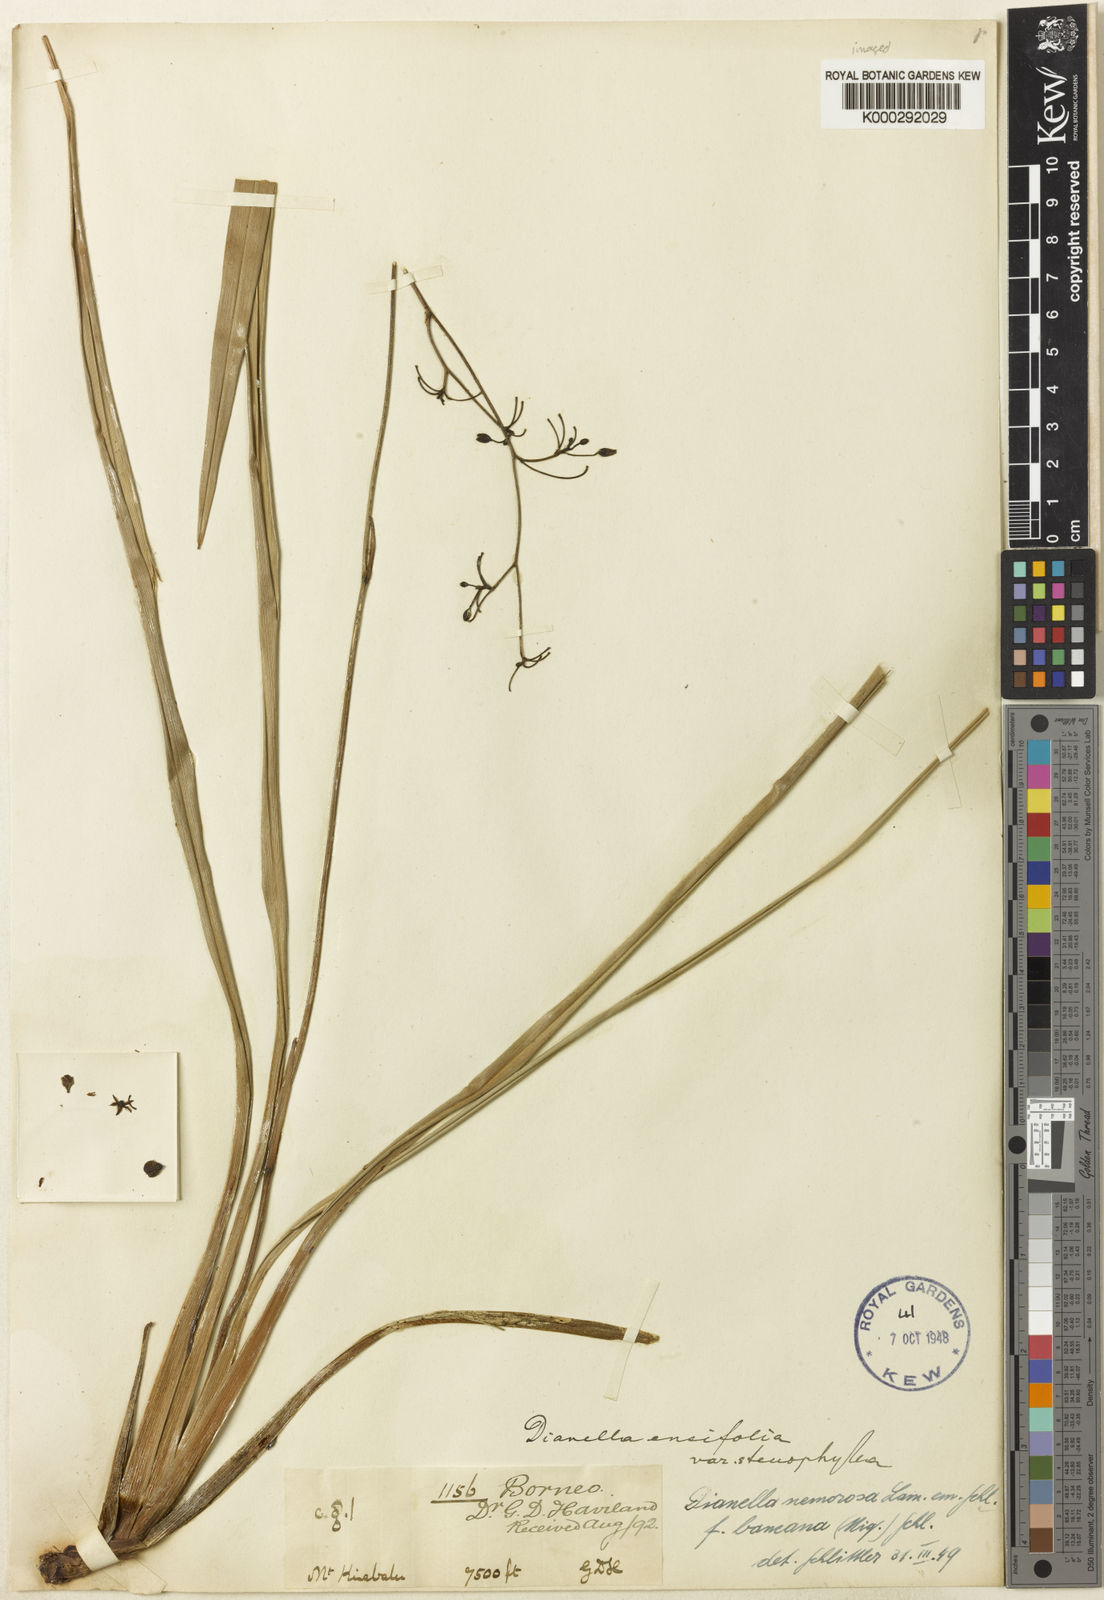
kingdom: Plantae
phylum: Tracheophyta
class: Liliopsida
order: Asparagales
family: Asphodelaceae
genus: Dianella
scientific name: Dianella
